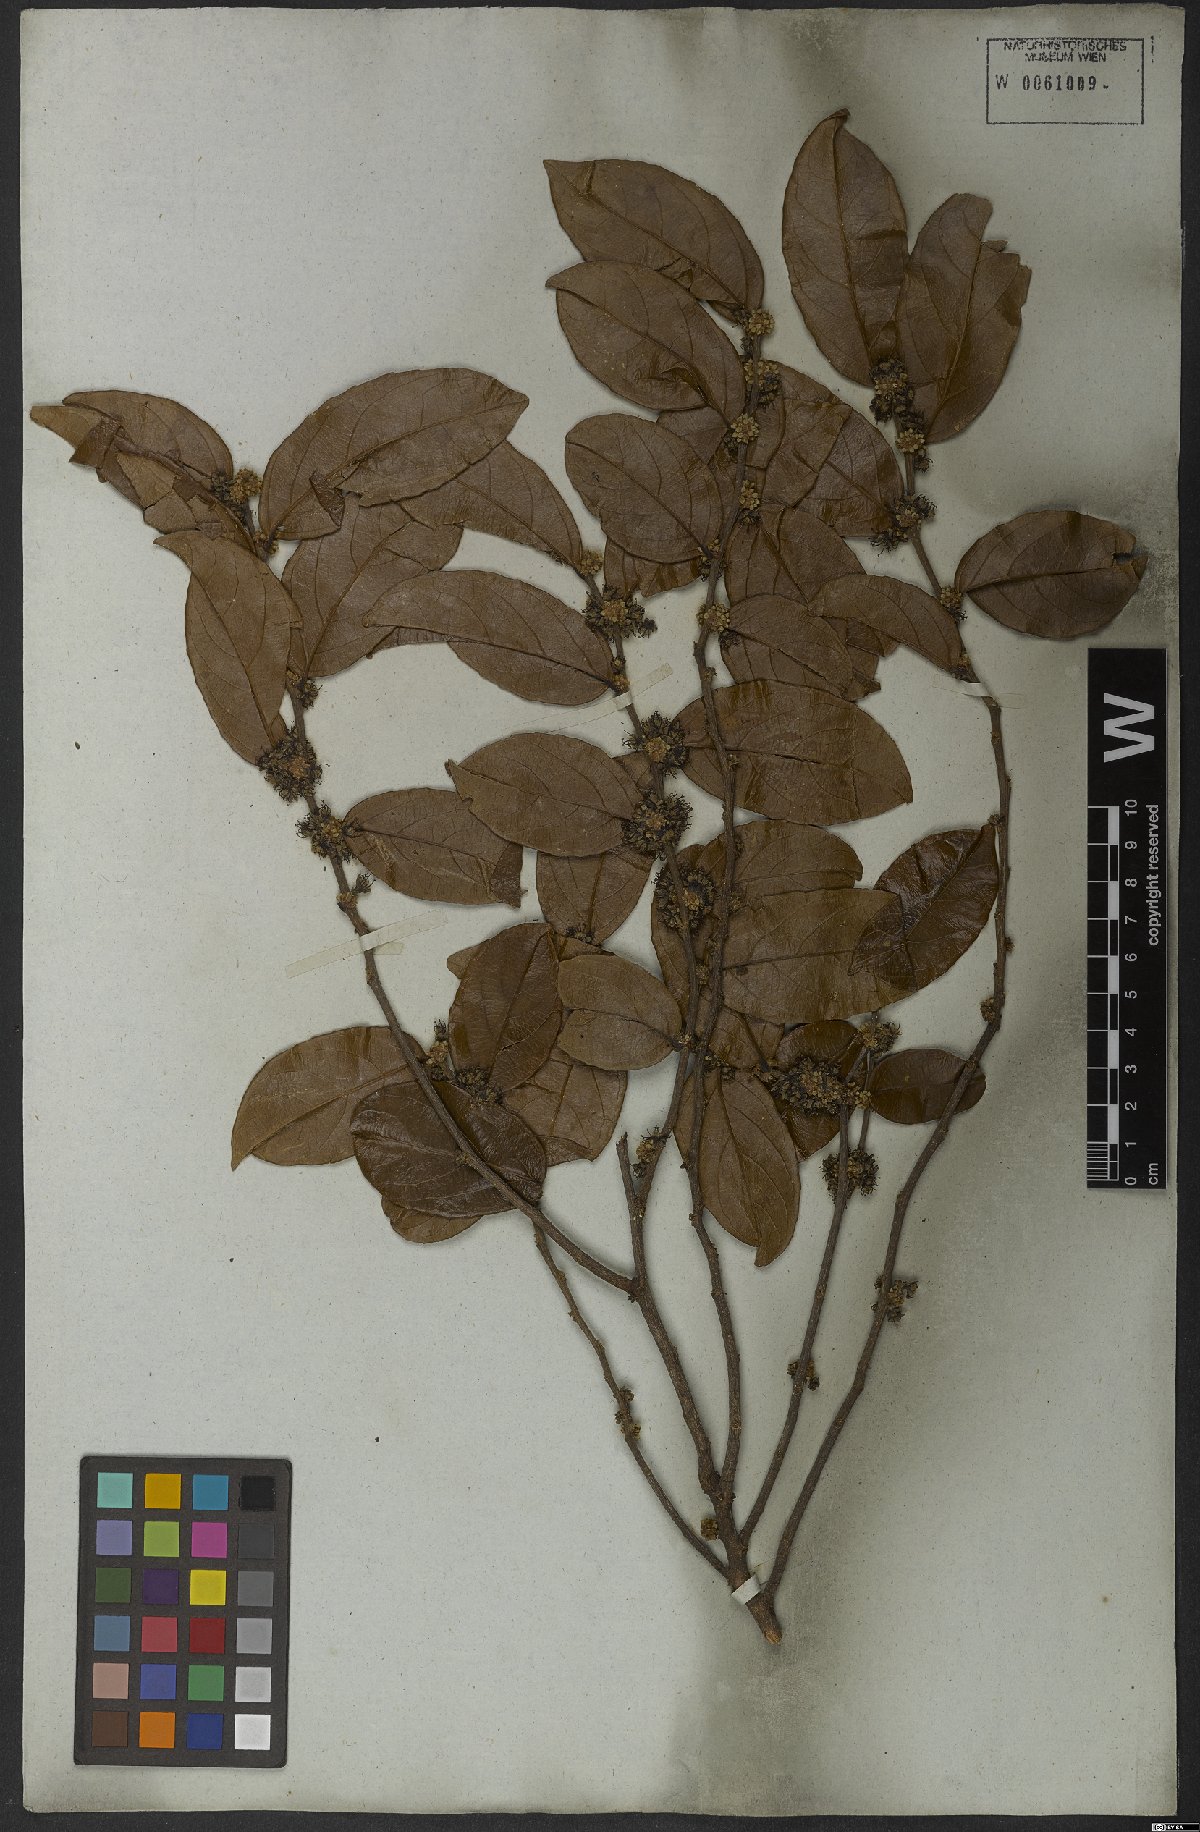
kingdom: Plantae
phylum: Tracheophyta
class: Magnoliopsida
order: Malpighiales
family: Salicaceae
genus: Casearia
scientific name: Casearia
